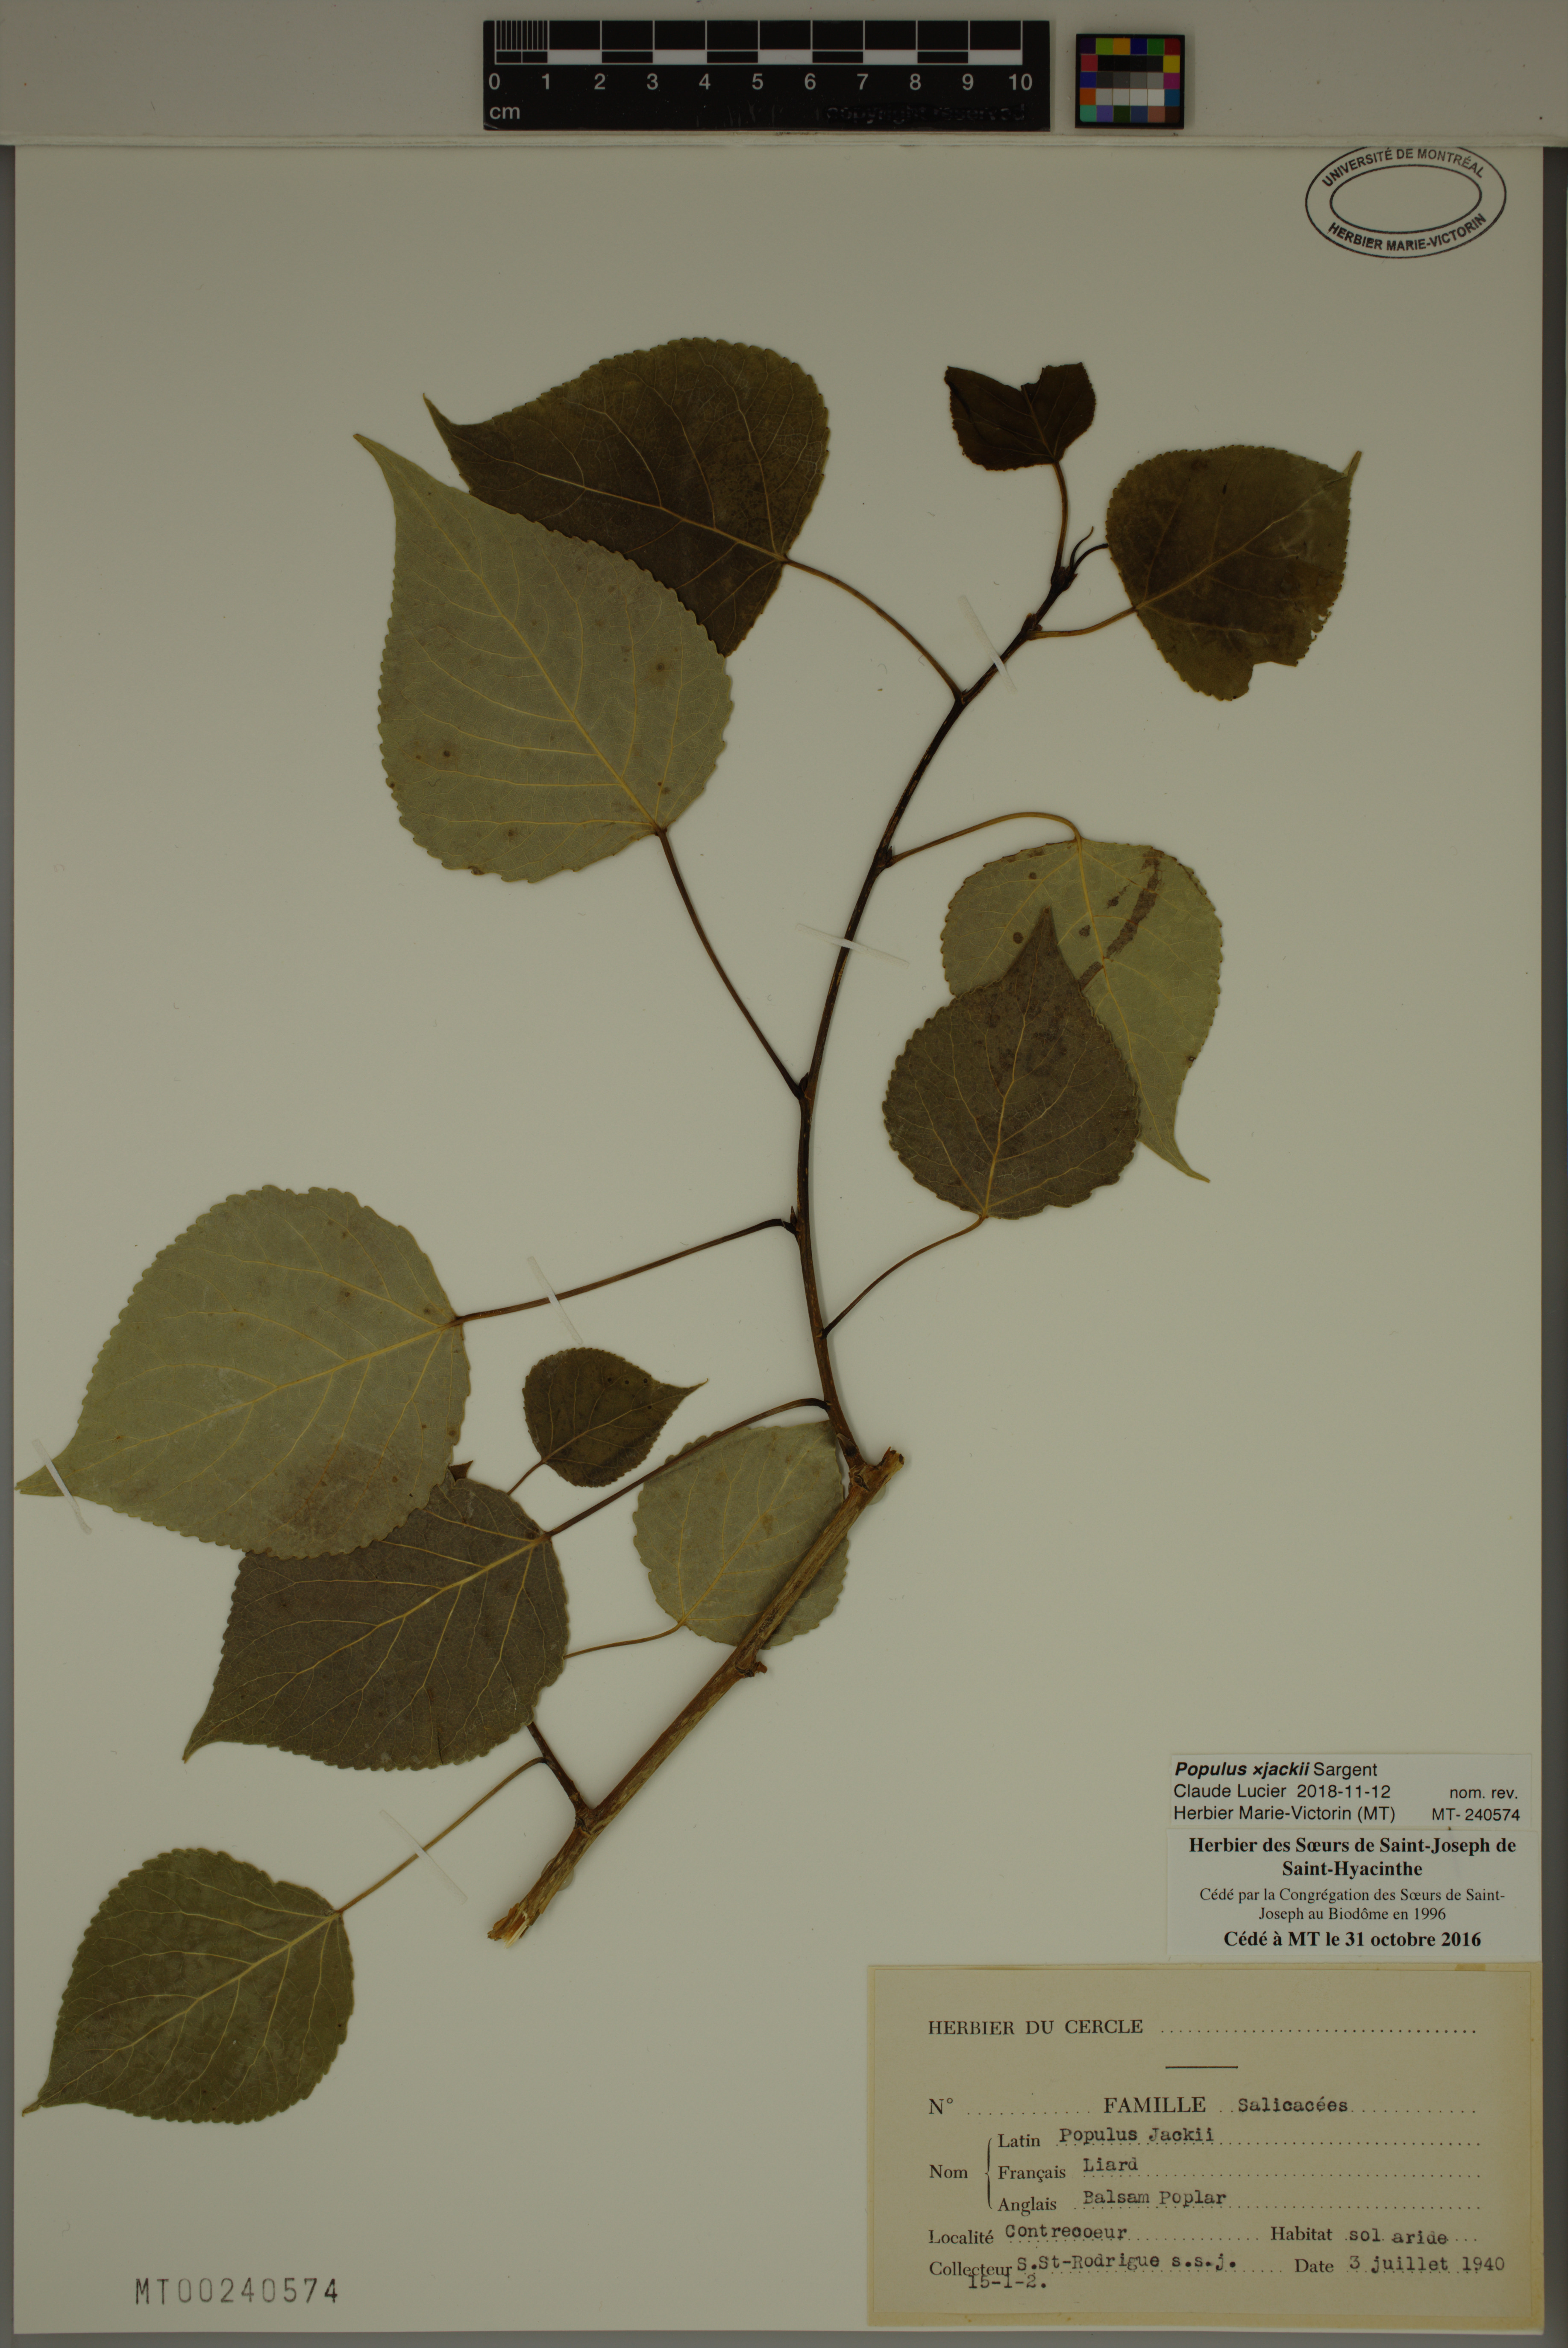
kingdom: Plantae
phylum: Tracheophyta
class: Magnoliopsida
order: Malpighiales
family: Salicaceae
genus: Populus
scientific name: Populus jackii
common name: Balm-of-gilead
